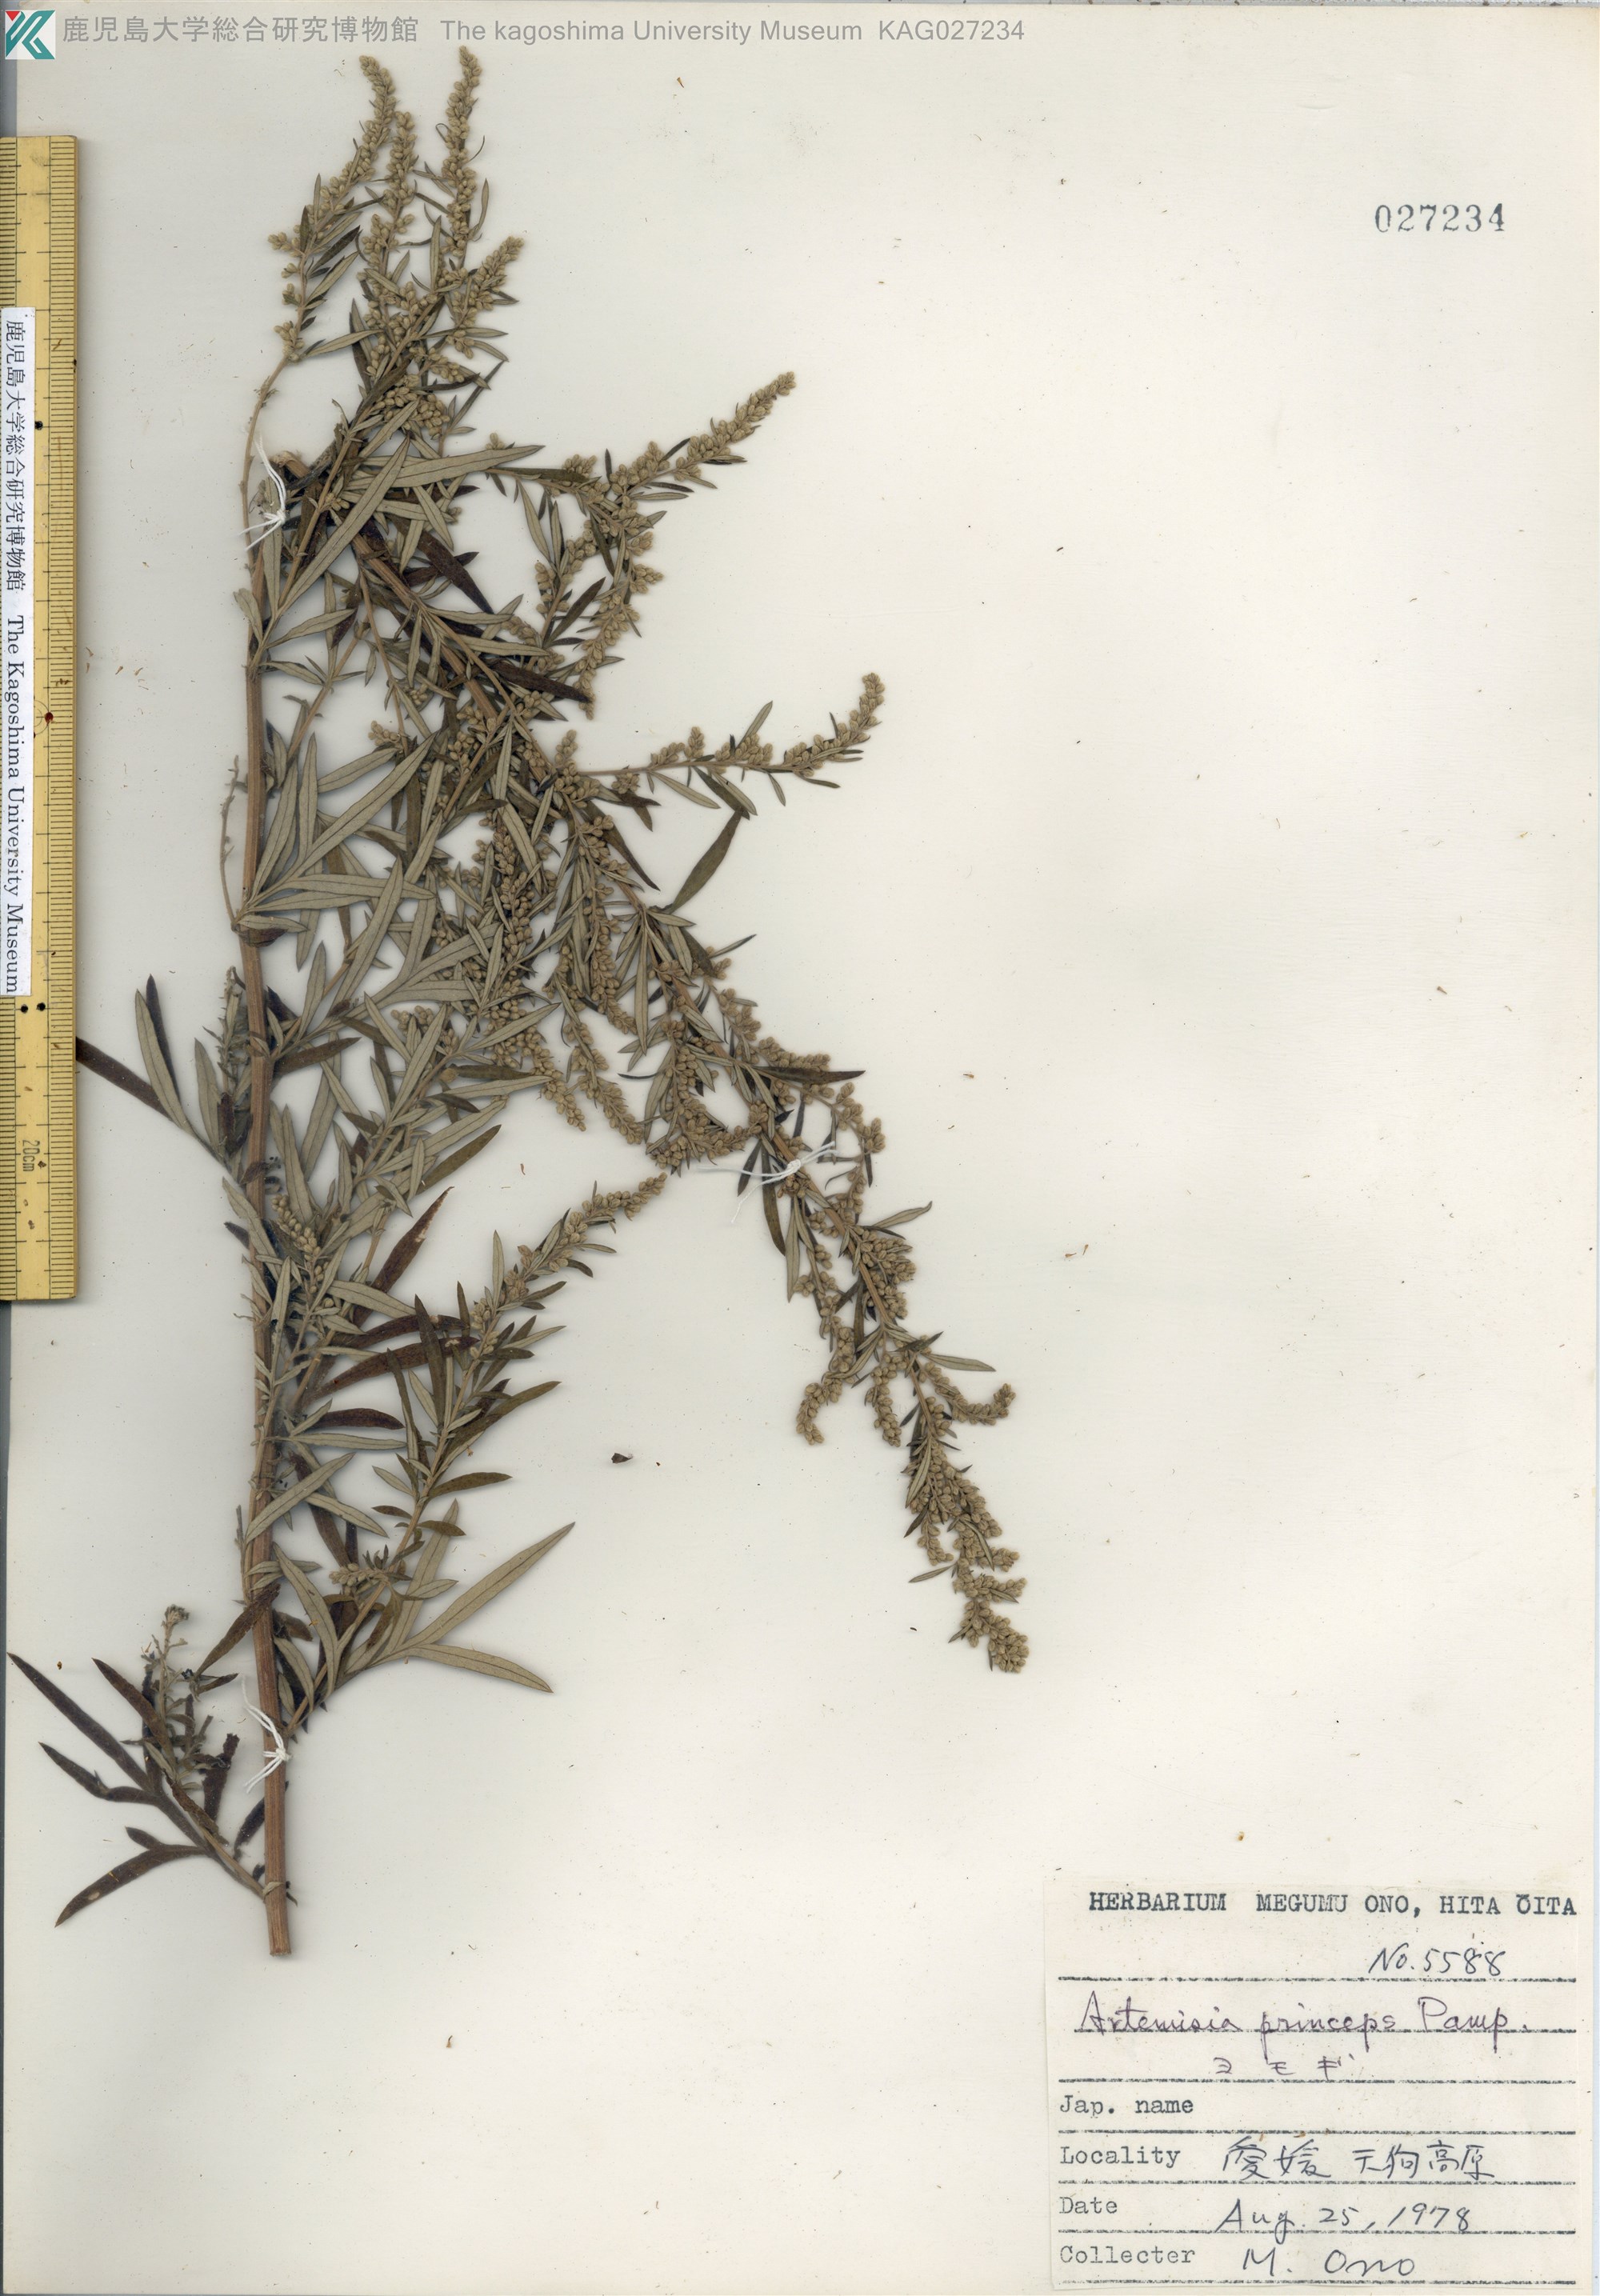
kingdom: Plantae
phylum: Tracheophyta
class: Magnoliopsida
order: Asterales
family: Asteraceae
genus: Artemisia
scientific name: Artemisia princeps
